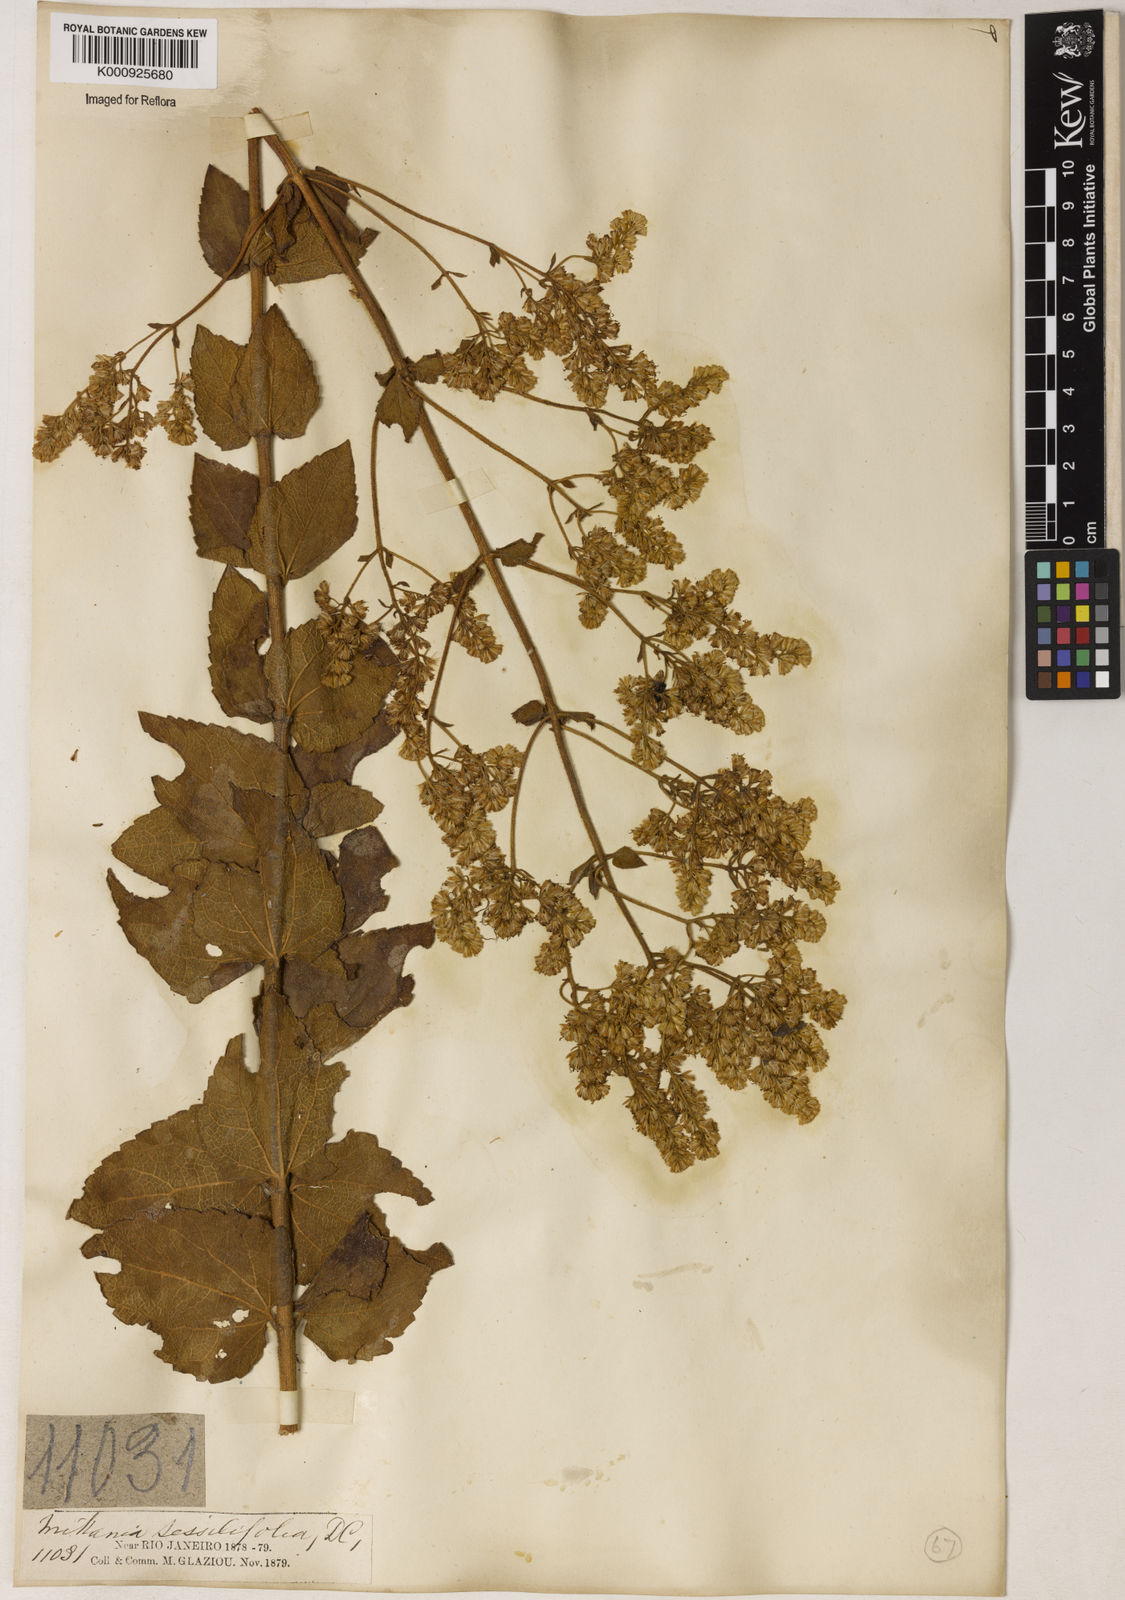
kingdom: Plantae
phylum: Tracheophyta
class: Magnoliopsida
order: Asterales
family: Asteraceae
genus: Mikania
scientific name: Mikania sessilifolia
